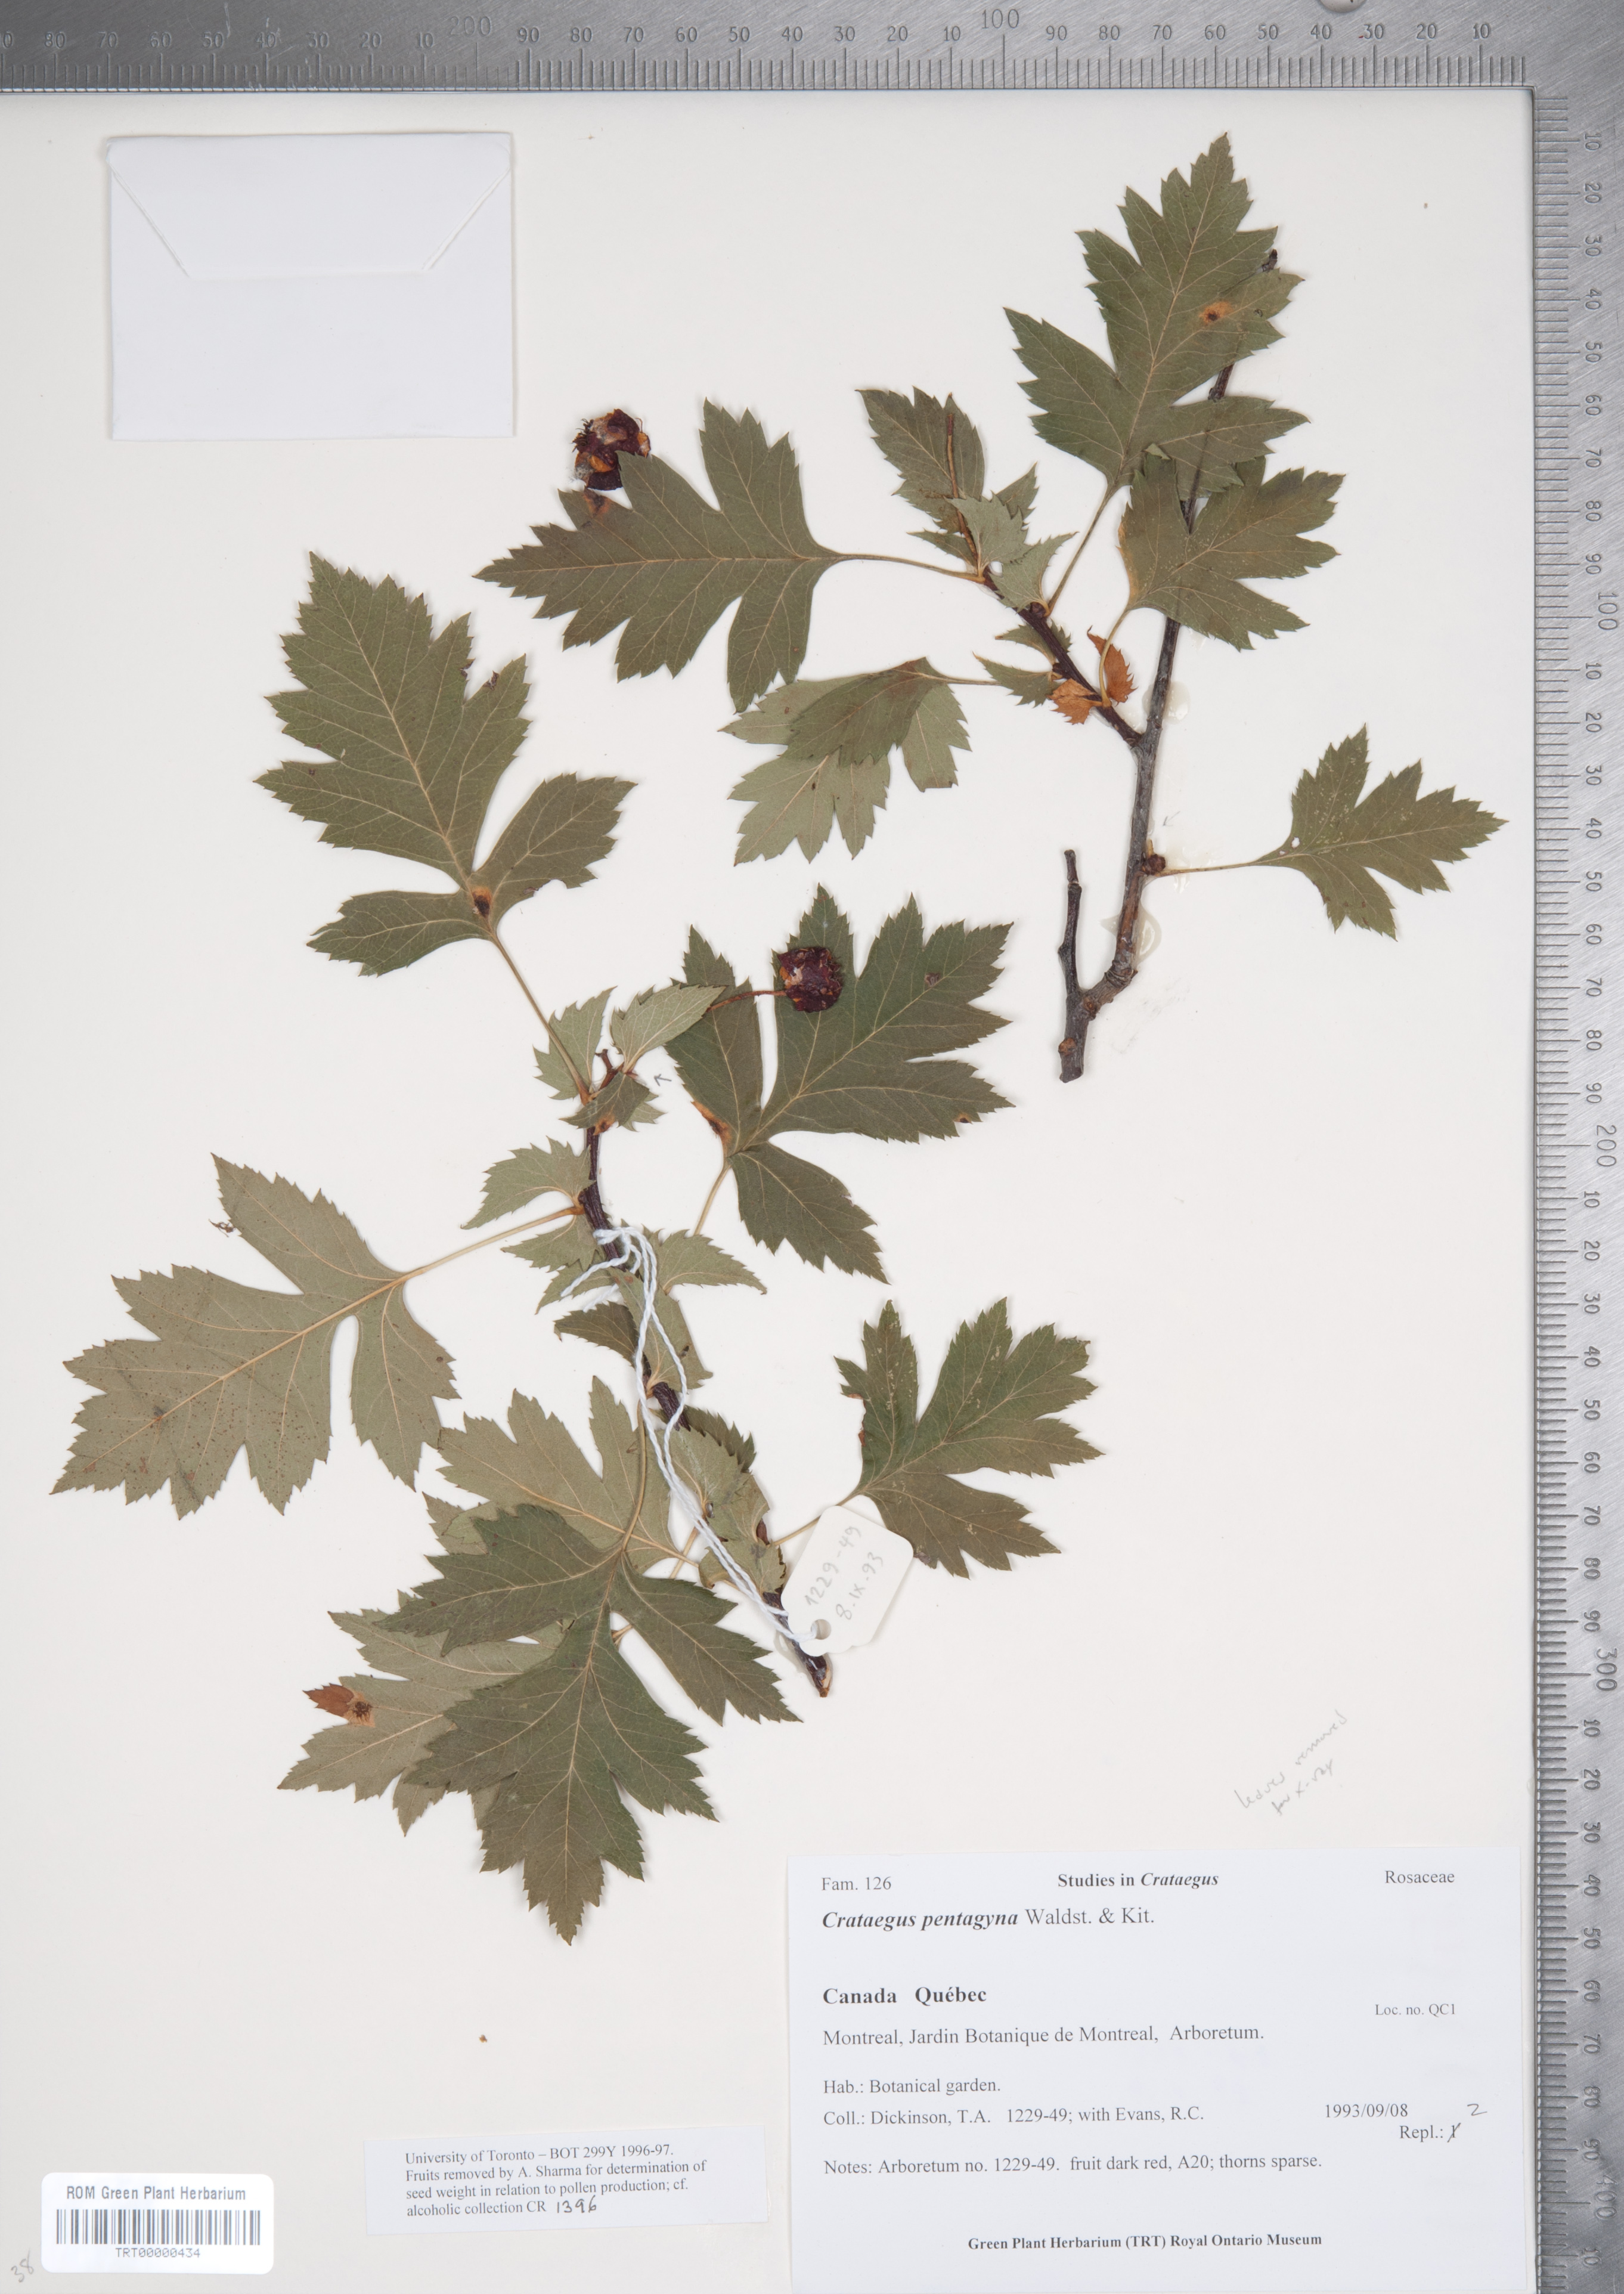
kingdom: Plantae
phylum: Tracheophyta
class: Magnoliopsida
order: Rosales
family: Rosaceae
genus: Crataegus
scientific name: Crataegus pinnatifida
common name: Chinese haw
